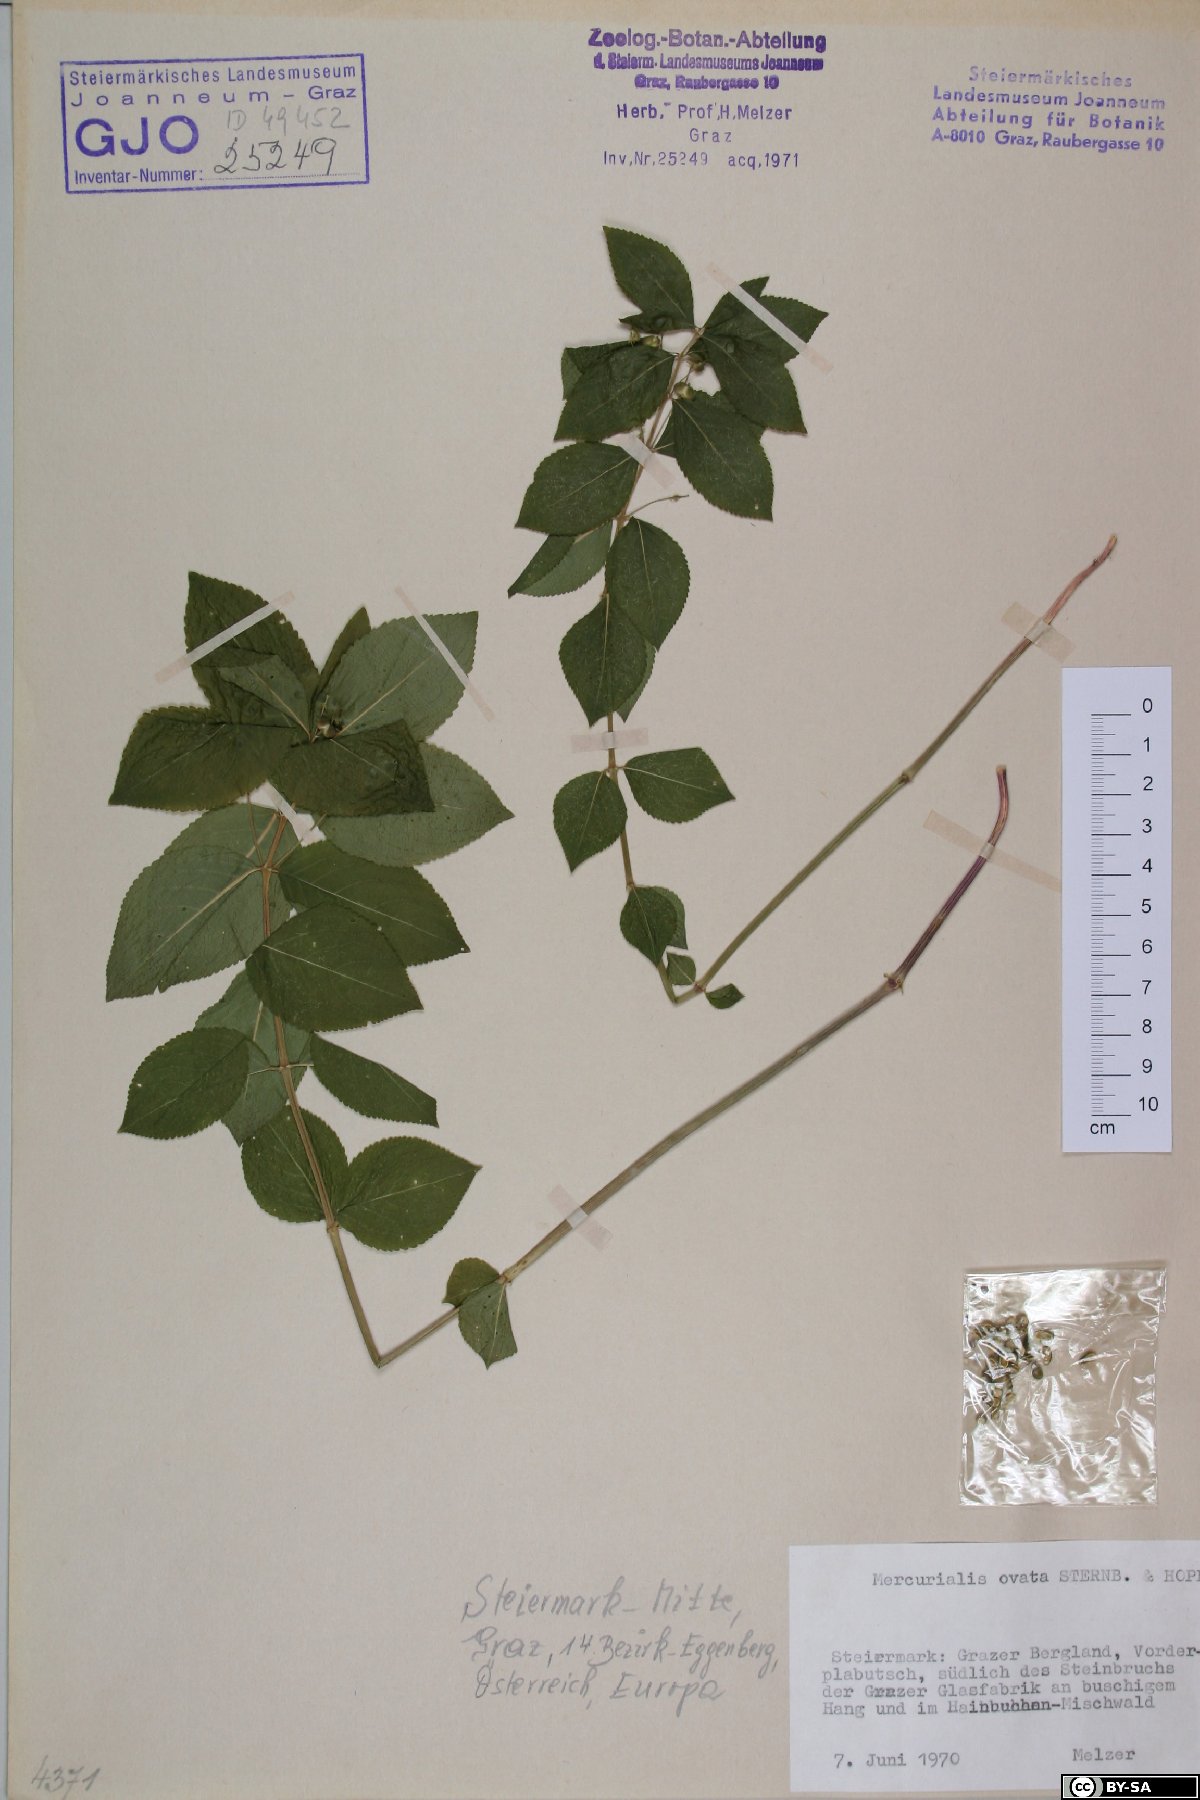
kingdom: Plantae
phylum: Tracheophyta
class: Magnoliopsida
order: Malpighiales
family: Euphorbiaceae
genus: Mercurialis
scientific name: Mercurialis ovata
